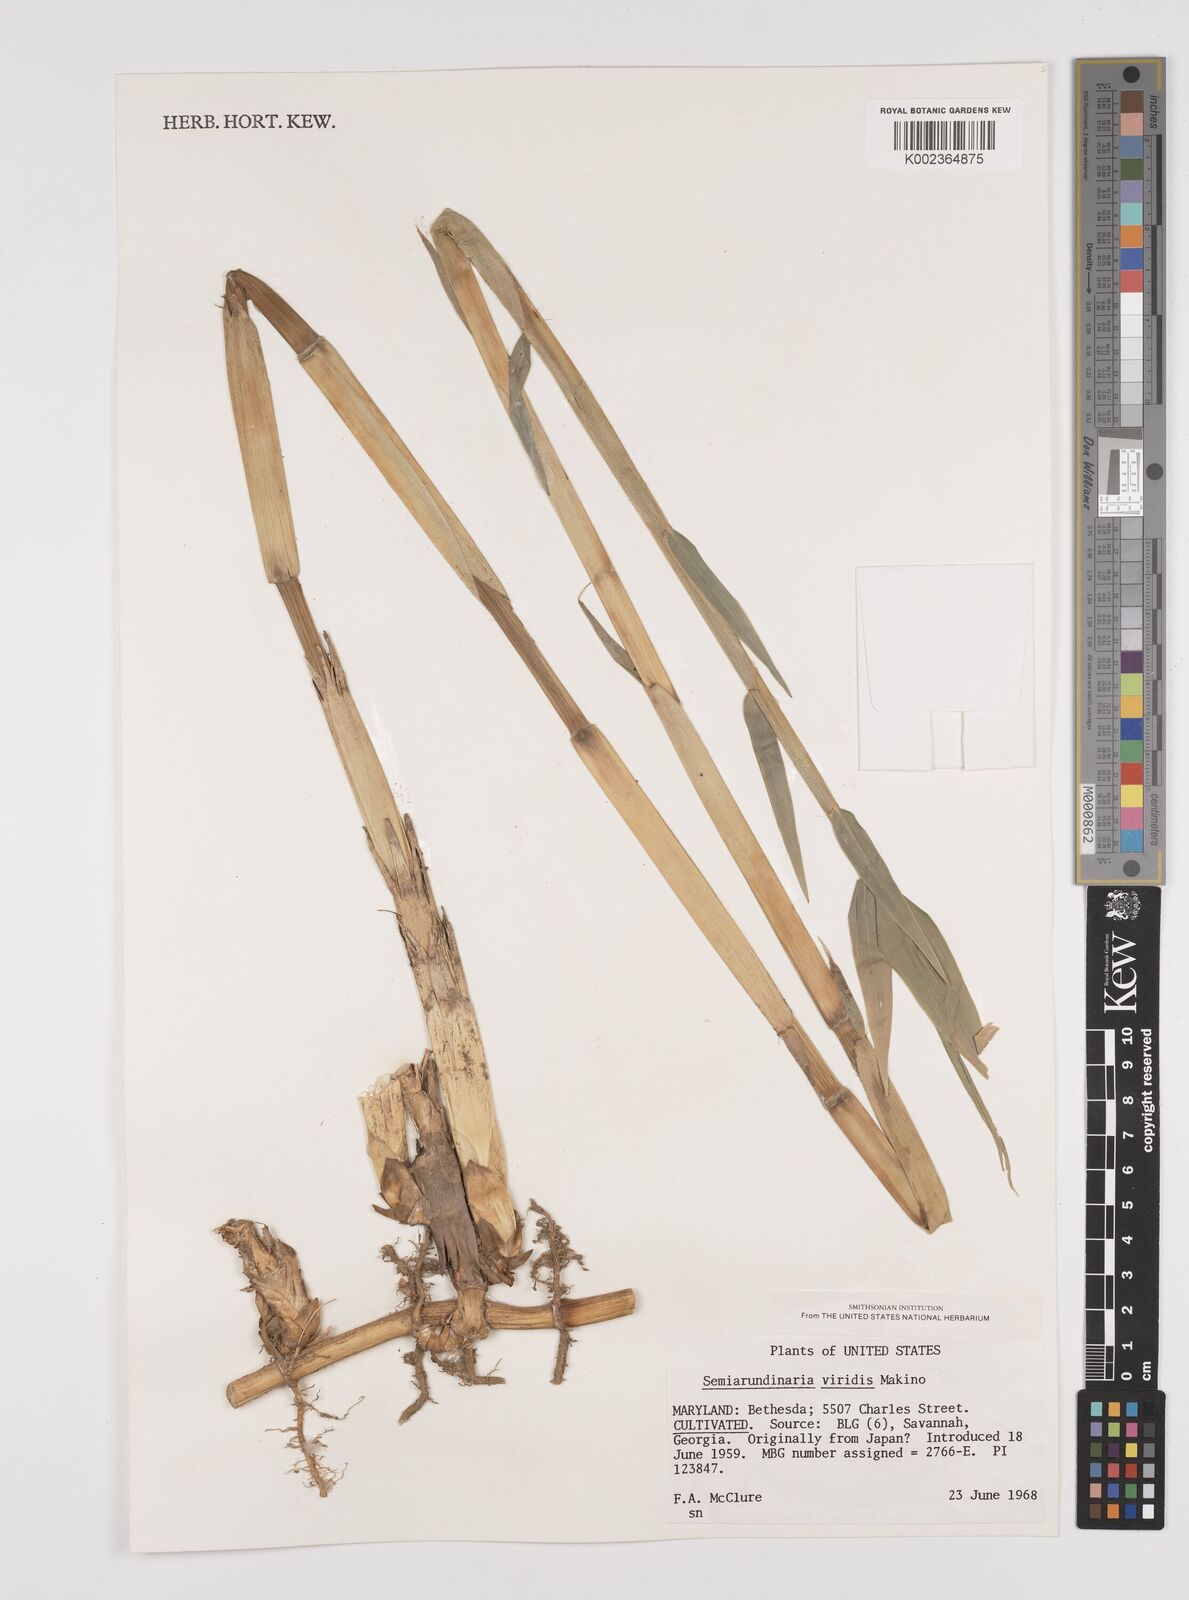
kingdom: Plantae
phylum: Tracheophyta
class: Liliopsida
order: Poales
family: Poaceae
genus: Semiarundinaria
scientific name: Semiarundinaria fastuosa
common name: Narihira bamboo
